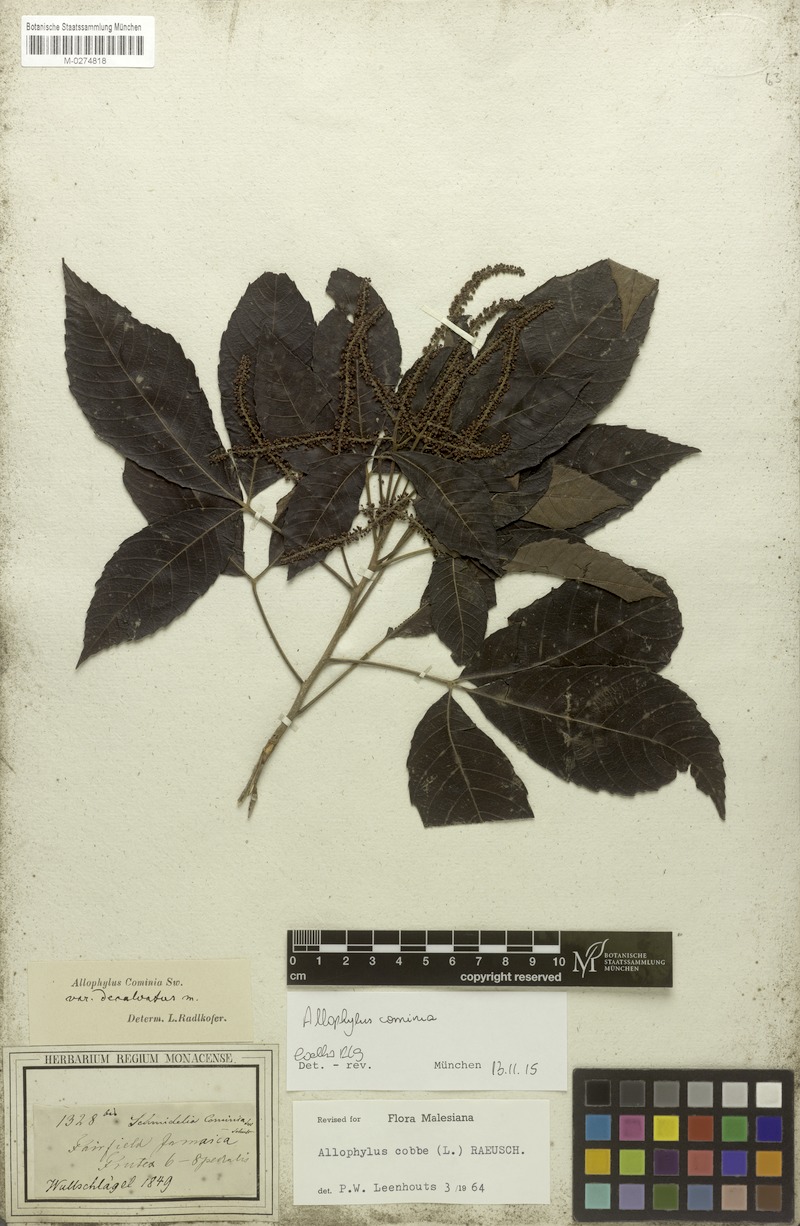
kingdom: Plantae
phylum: Tracheophyta
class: Magnoliopsida
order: Sapindales
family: Sapindaceae
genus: Allophylus
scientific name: Allophylus cominia
